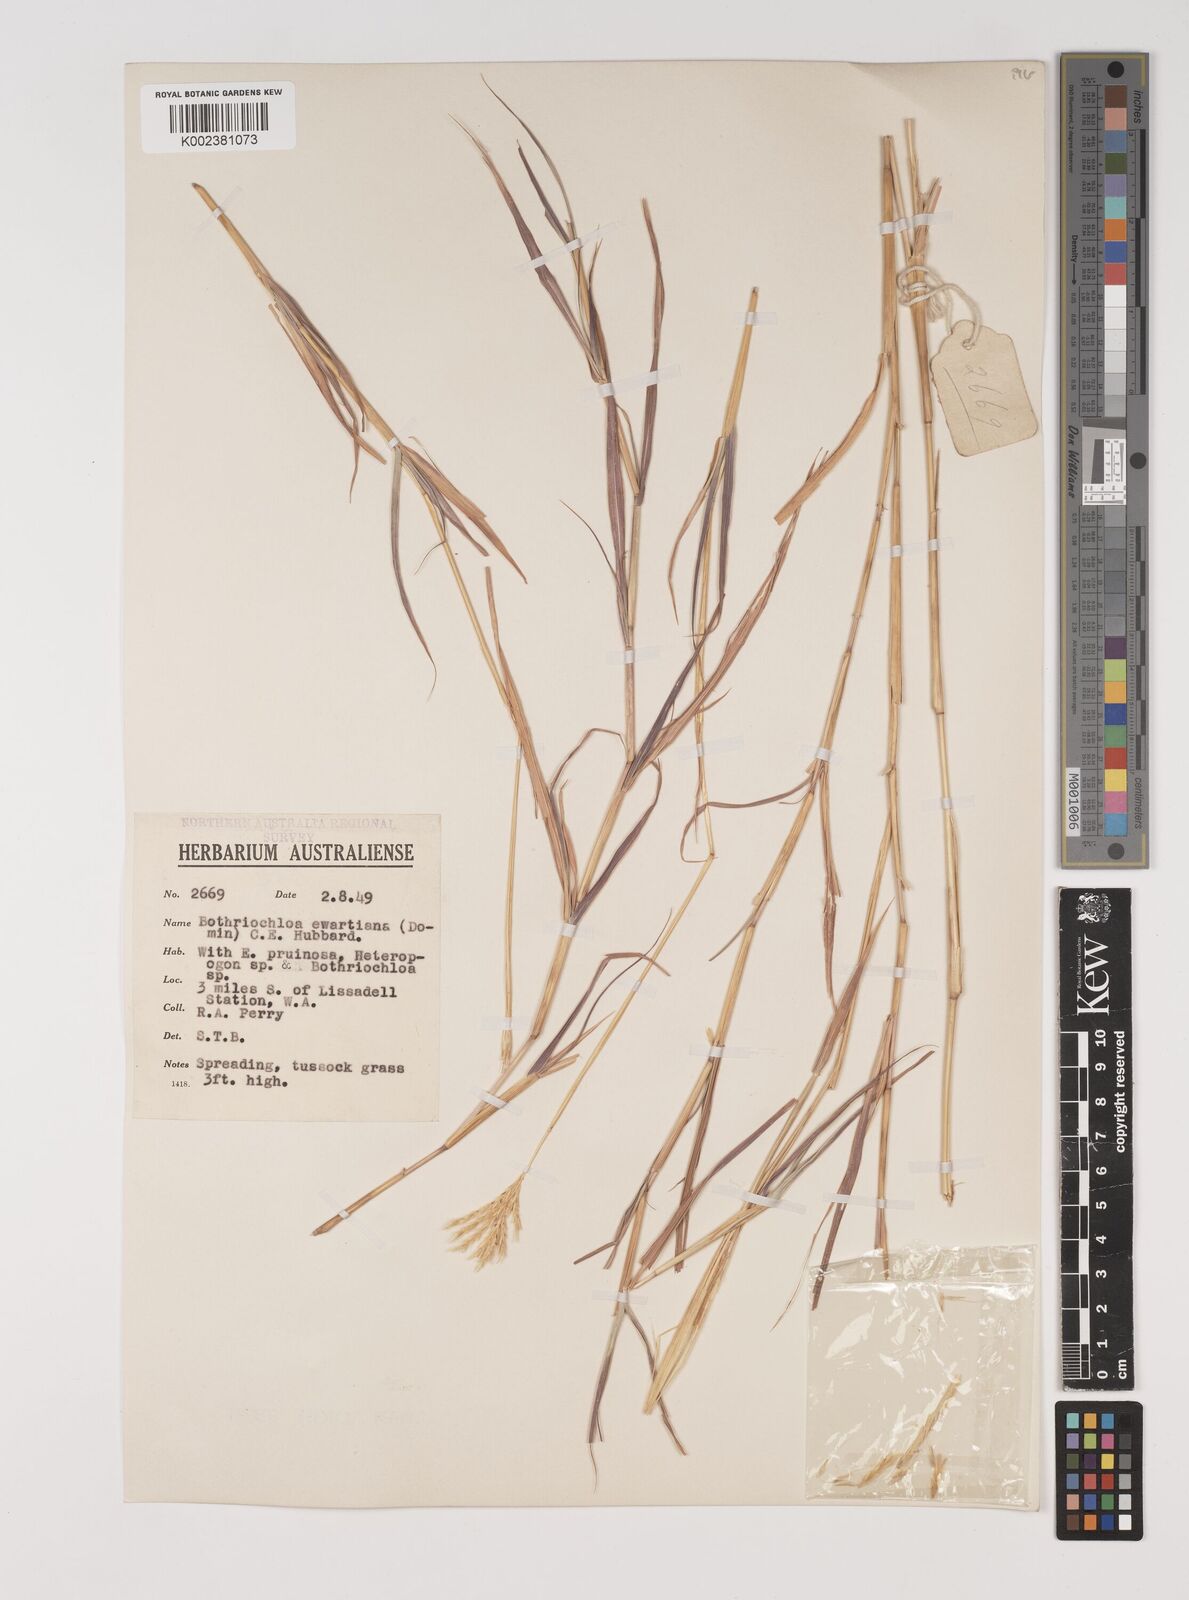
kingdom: Plantae
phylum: Tracheophyta
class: Liliopsida
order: Poales
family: Poaceae
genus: Bothriochloa
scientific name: Bothriochloa ewartiana
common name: Desert-bluegrass
